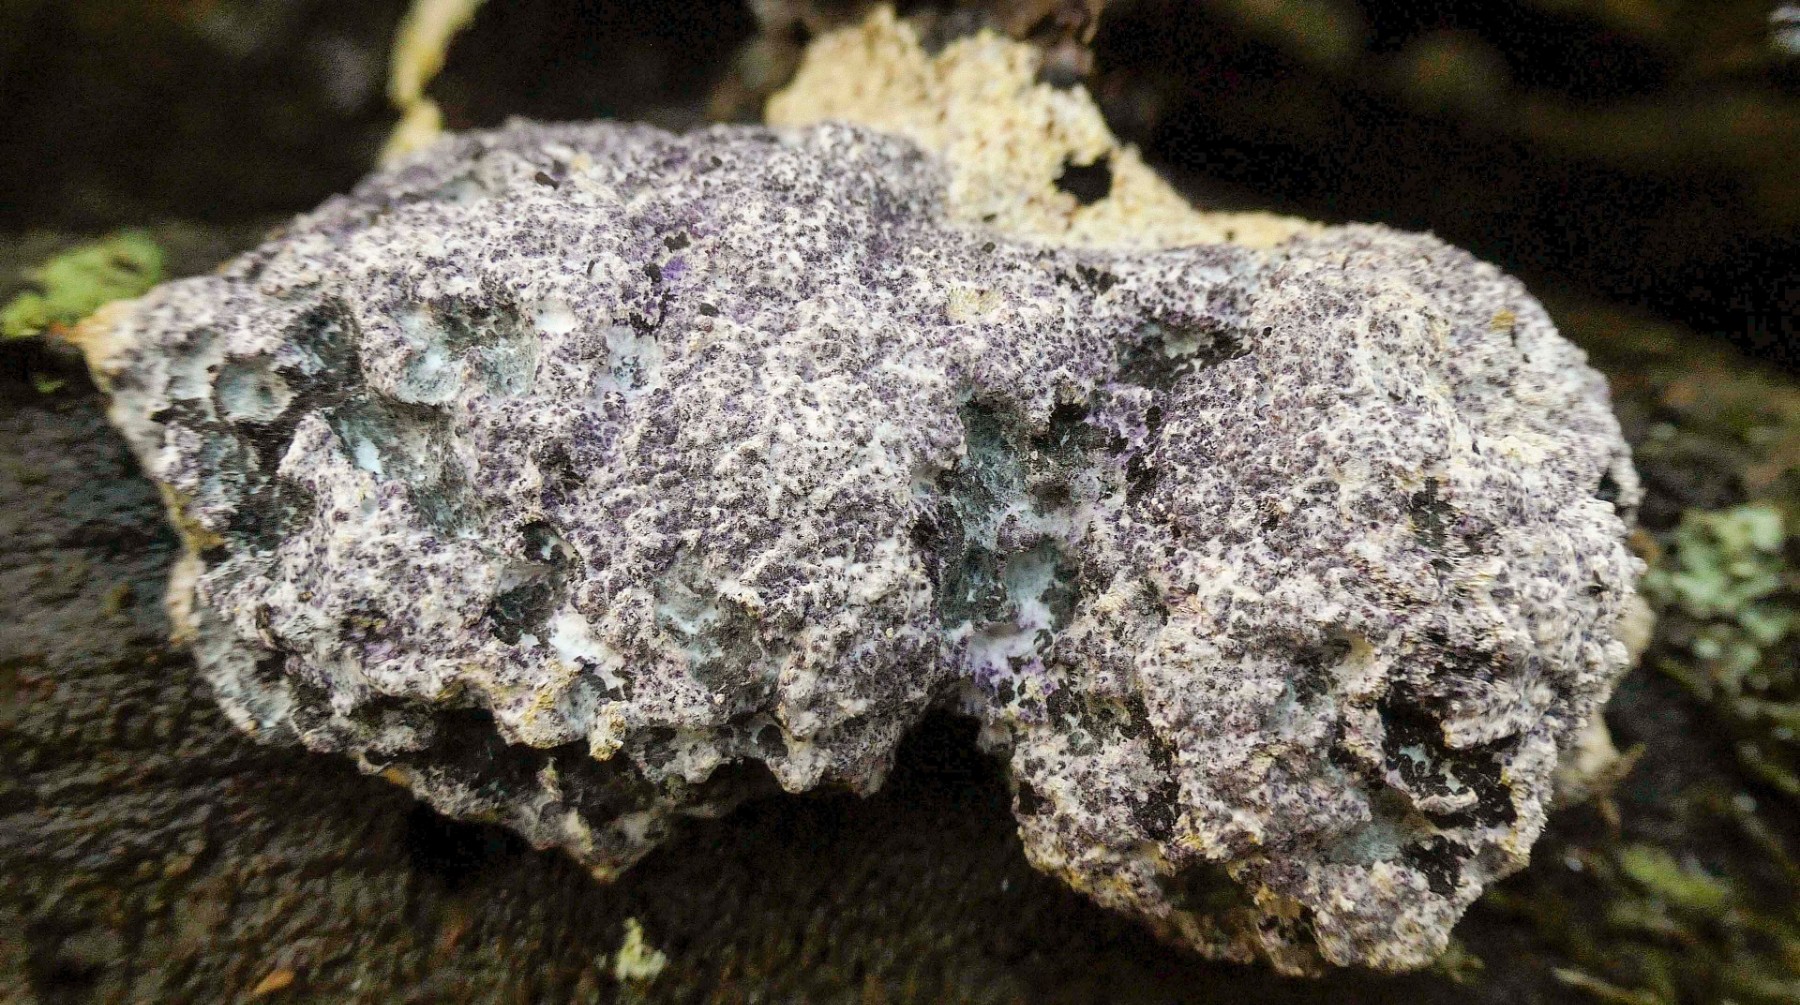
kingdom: Fungi
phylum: Ascomycota
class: Sordariomycetes
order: Hypocreales
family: Bionectriaceae
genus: Nectriopsis
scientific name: Nectriopsis violacea
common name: violet snyltespind
